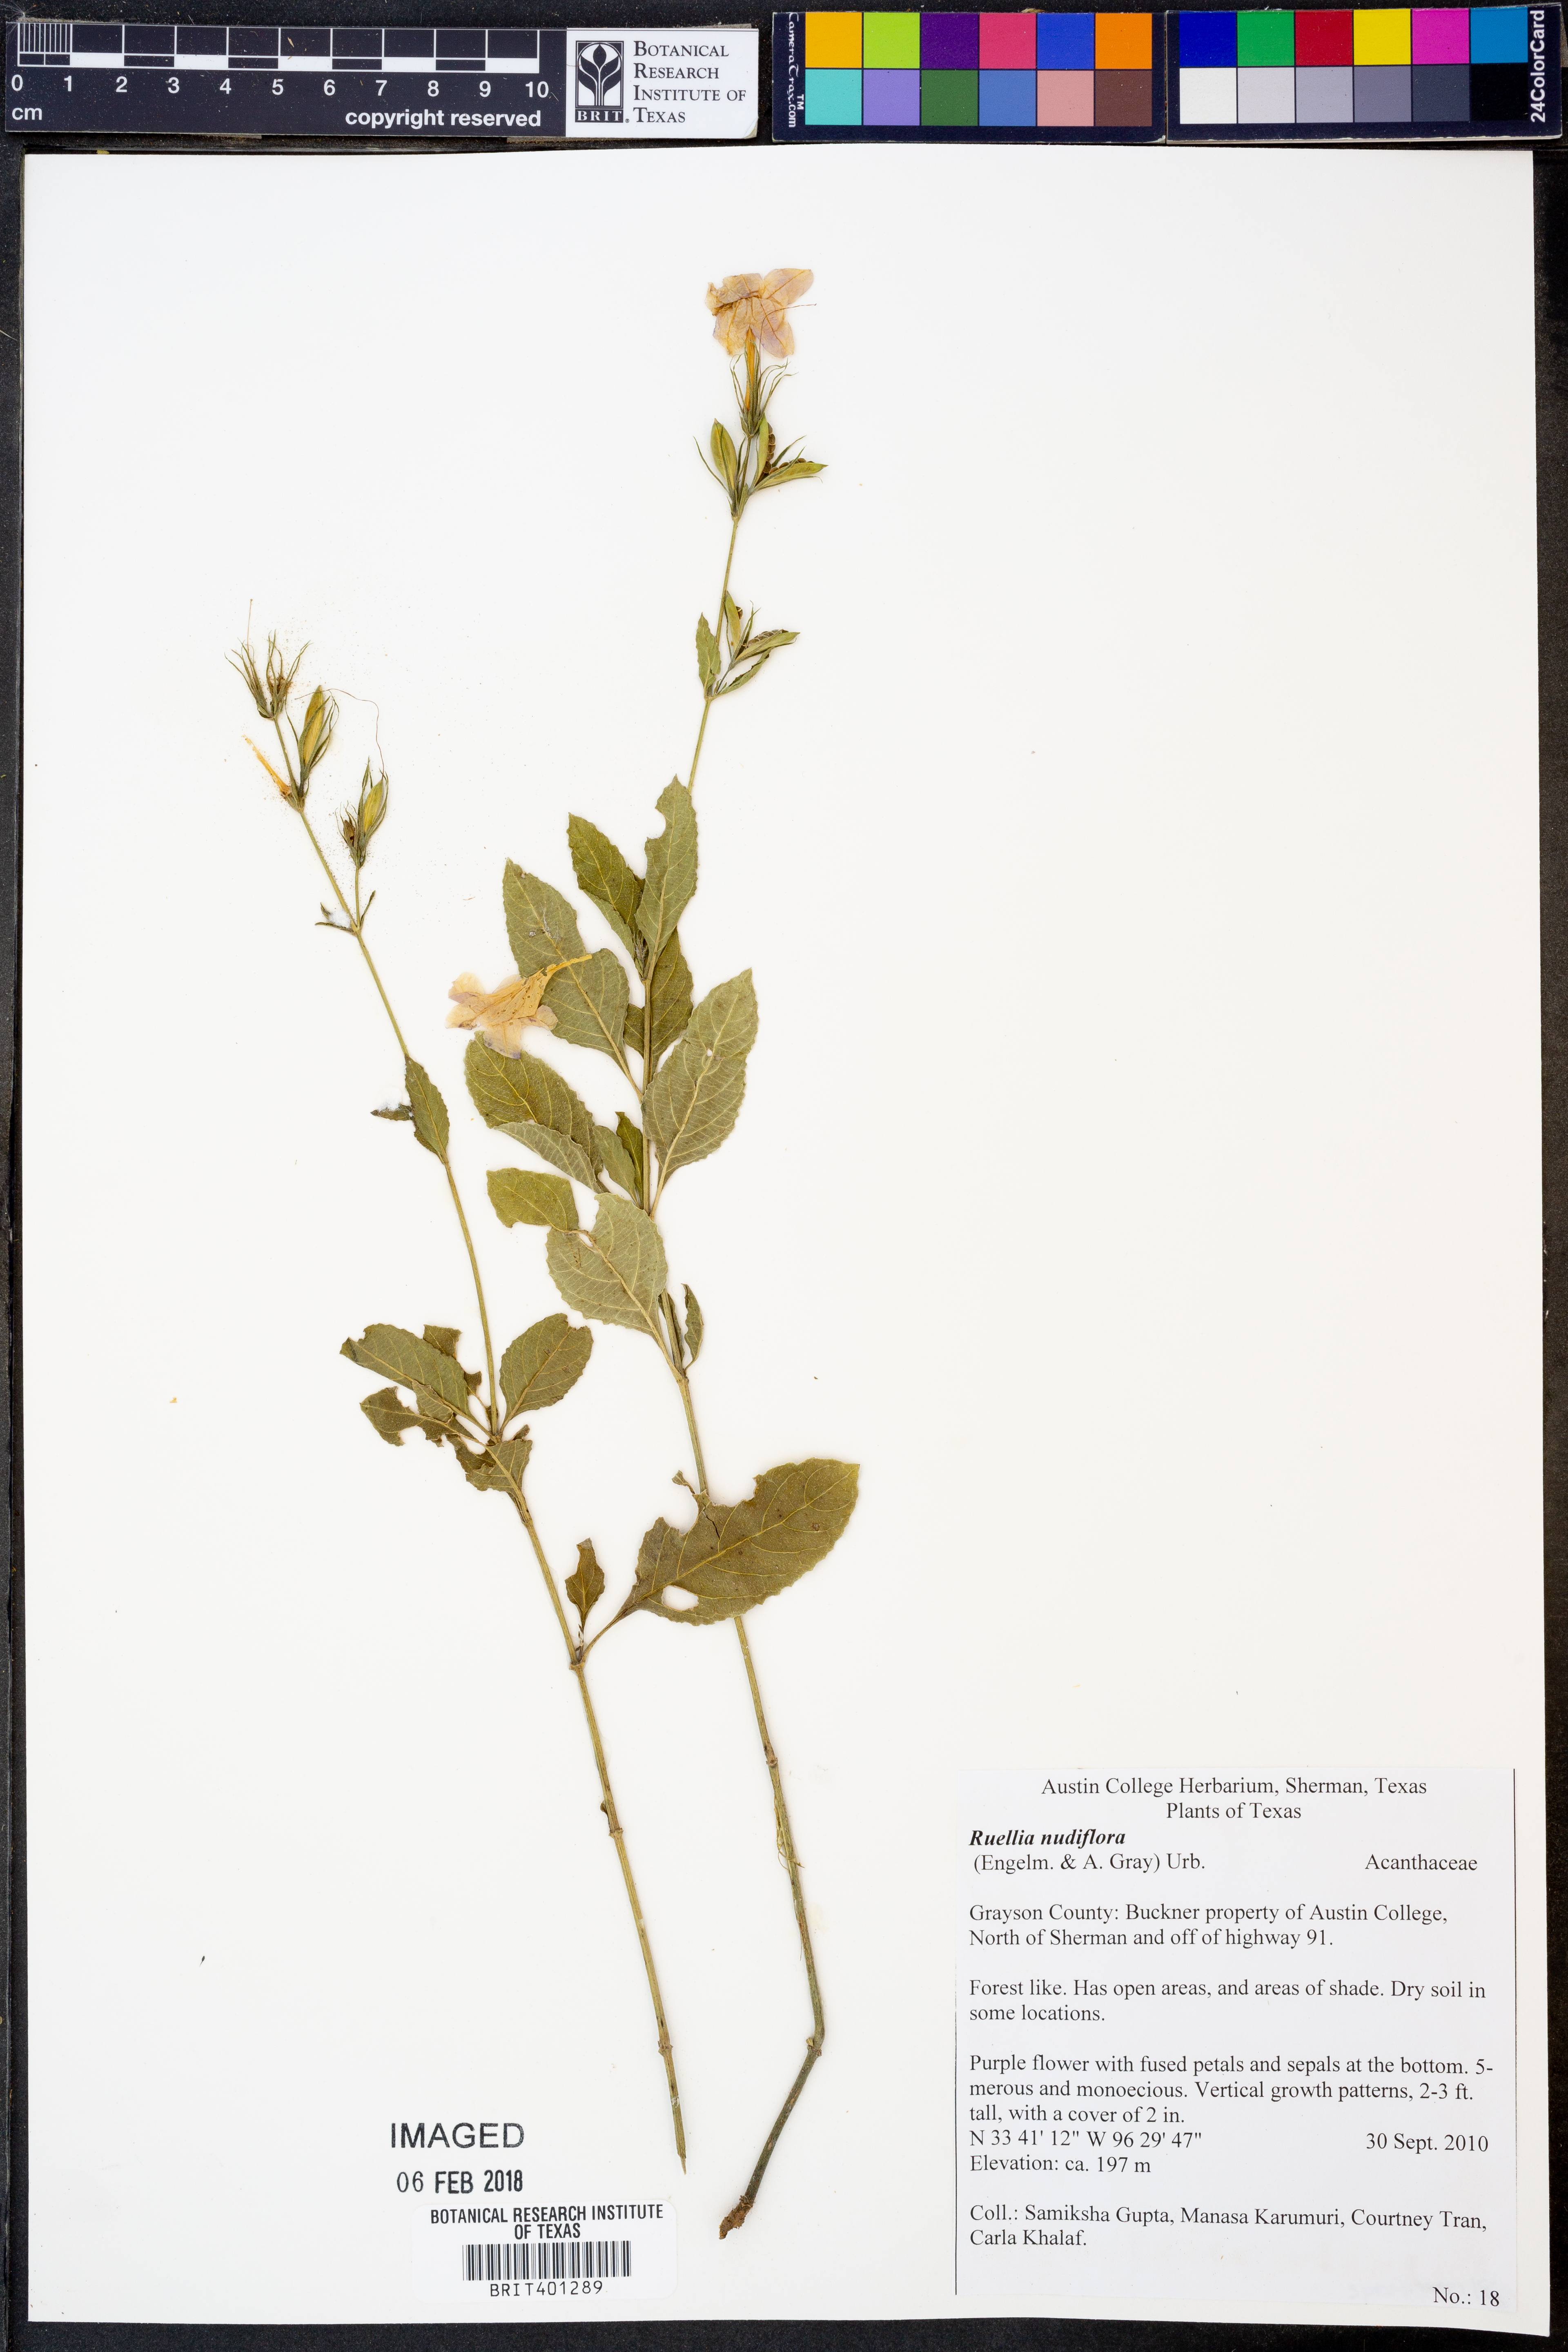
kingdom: Plantae
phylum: Tracheophyta
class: Magnoliopsida
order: Lamiales
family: Acanthaceae
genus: Ruellia
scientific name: Ruellia ciliatiflora
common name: Hairyflower wild petunia
